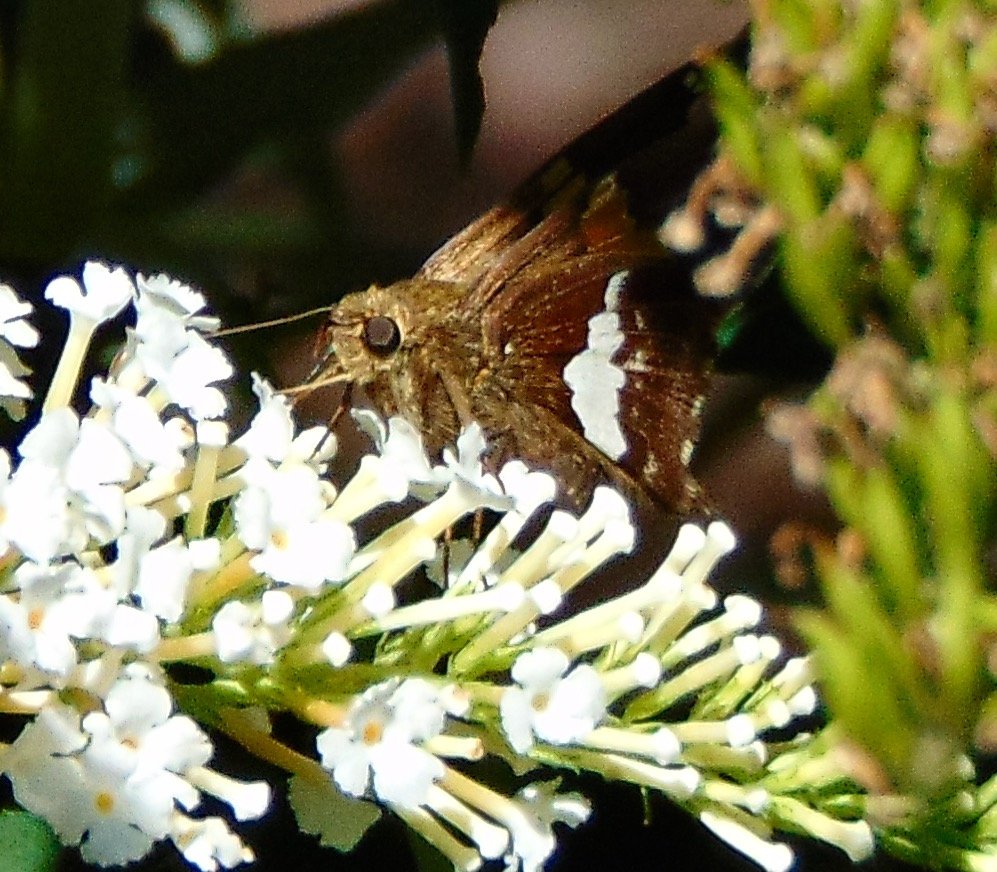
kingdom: Animalia
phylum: Arthropoda
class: Insecta
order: Lepidoptera
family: Hesperiidae
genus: Epargyreus
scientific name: Epargyreus clarus
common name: Silver-spotted Skipper
